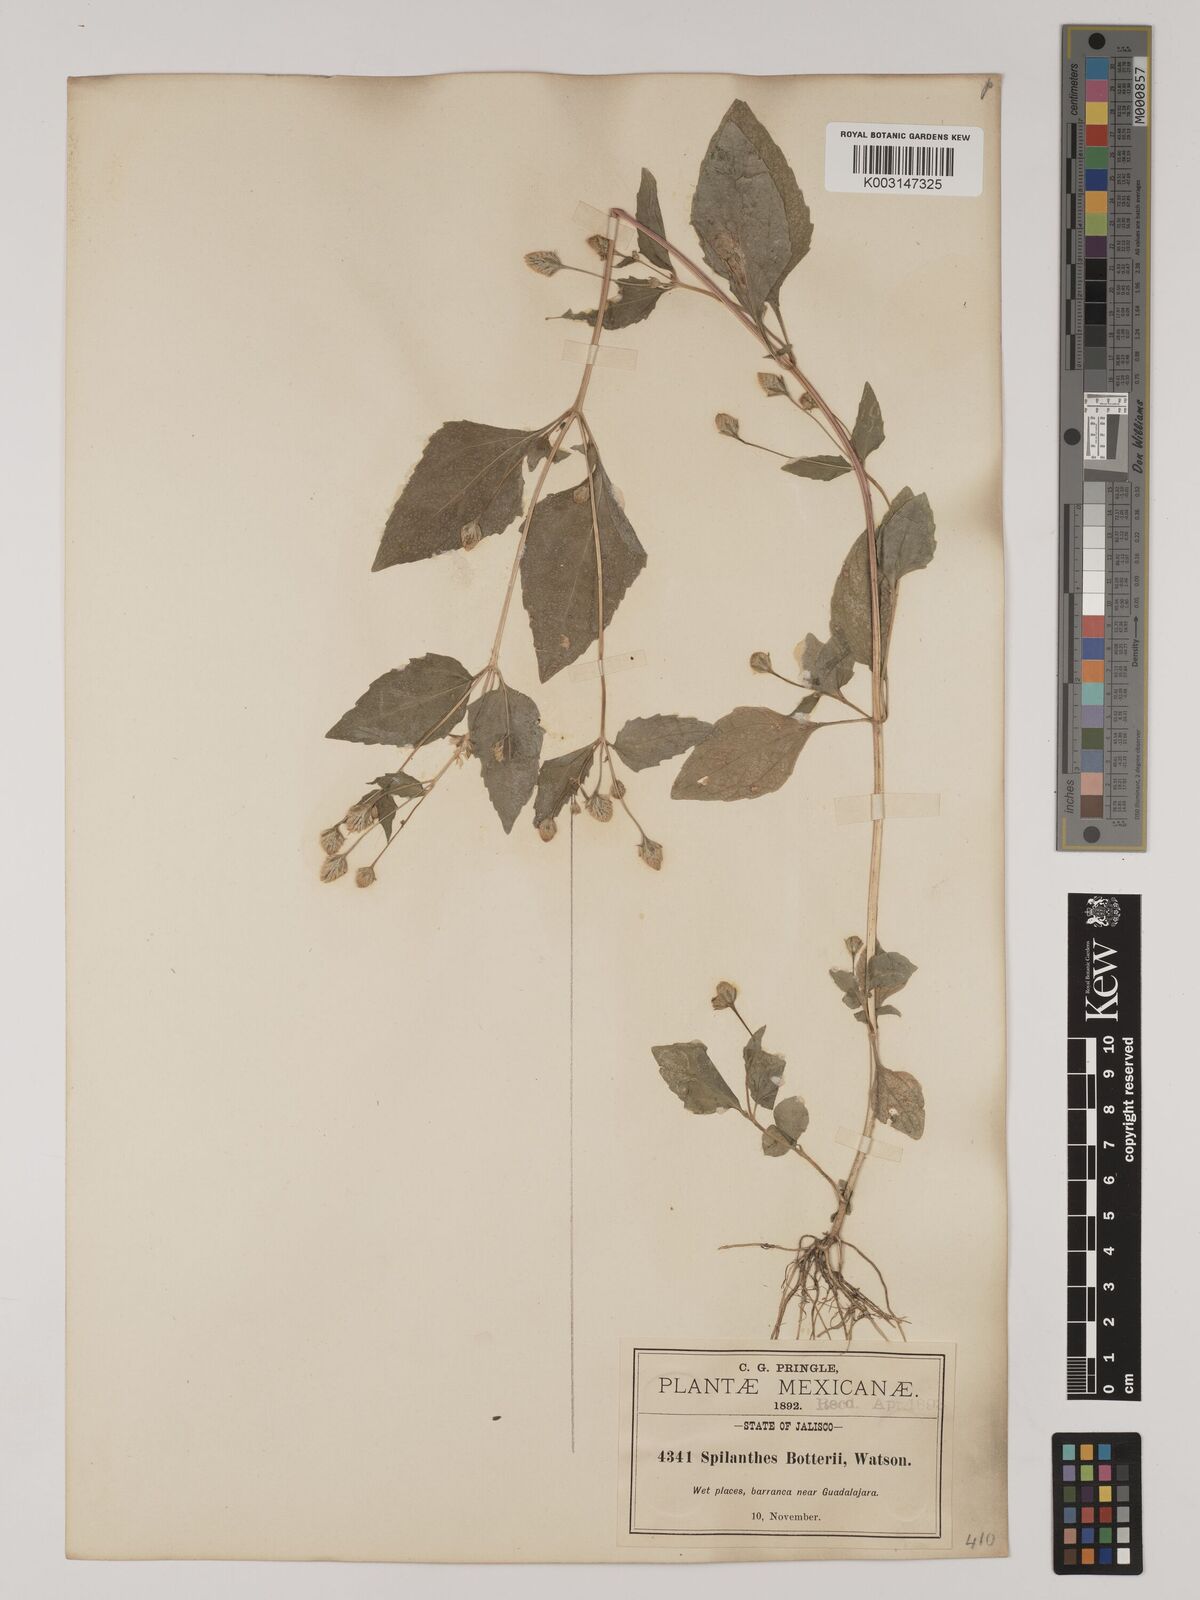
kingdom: Plantae
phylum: Tracheophyta
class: Magnoliopsida
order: Asterales
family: Asteraceae
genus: Acmella
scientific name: Acmella radicans
